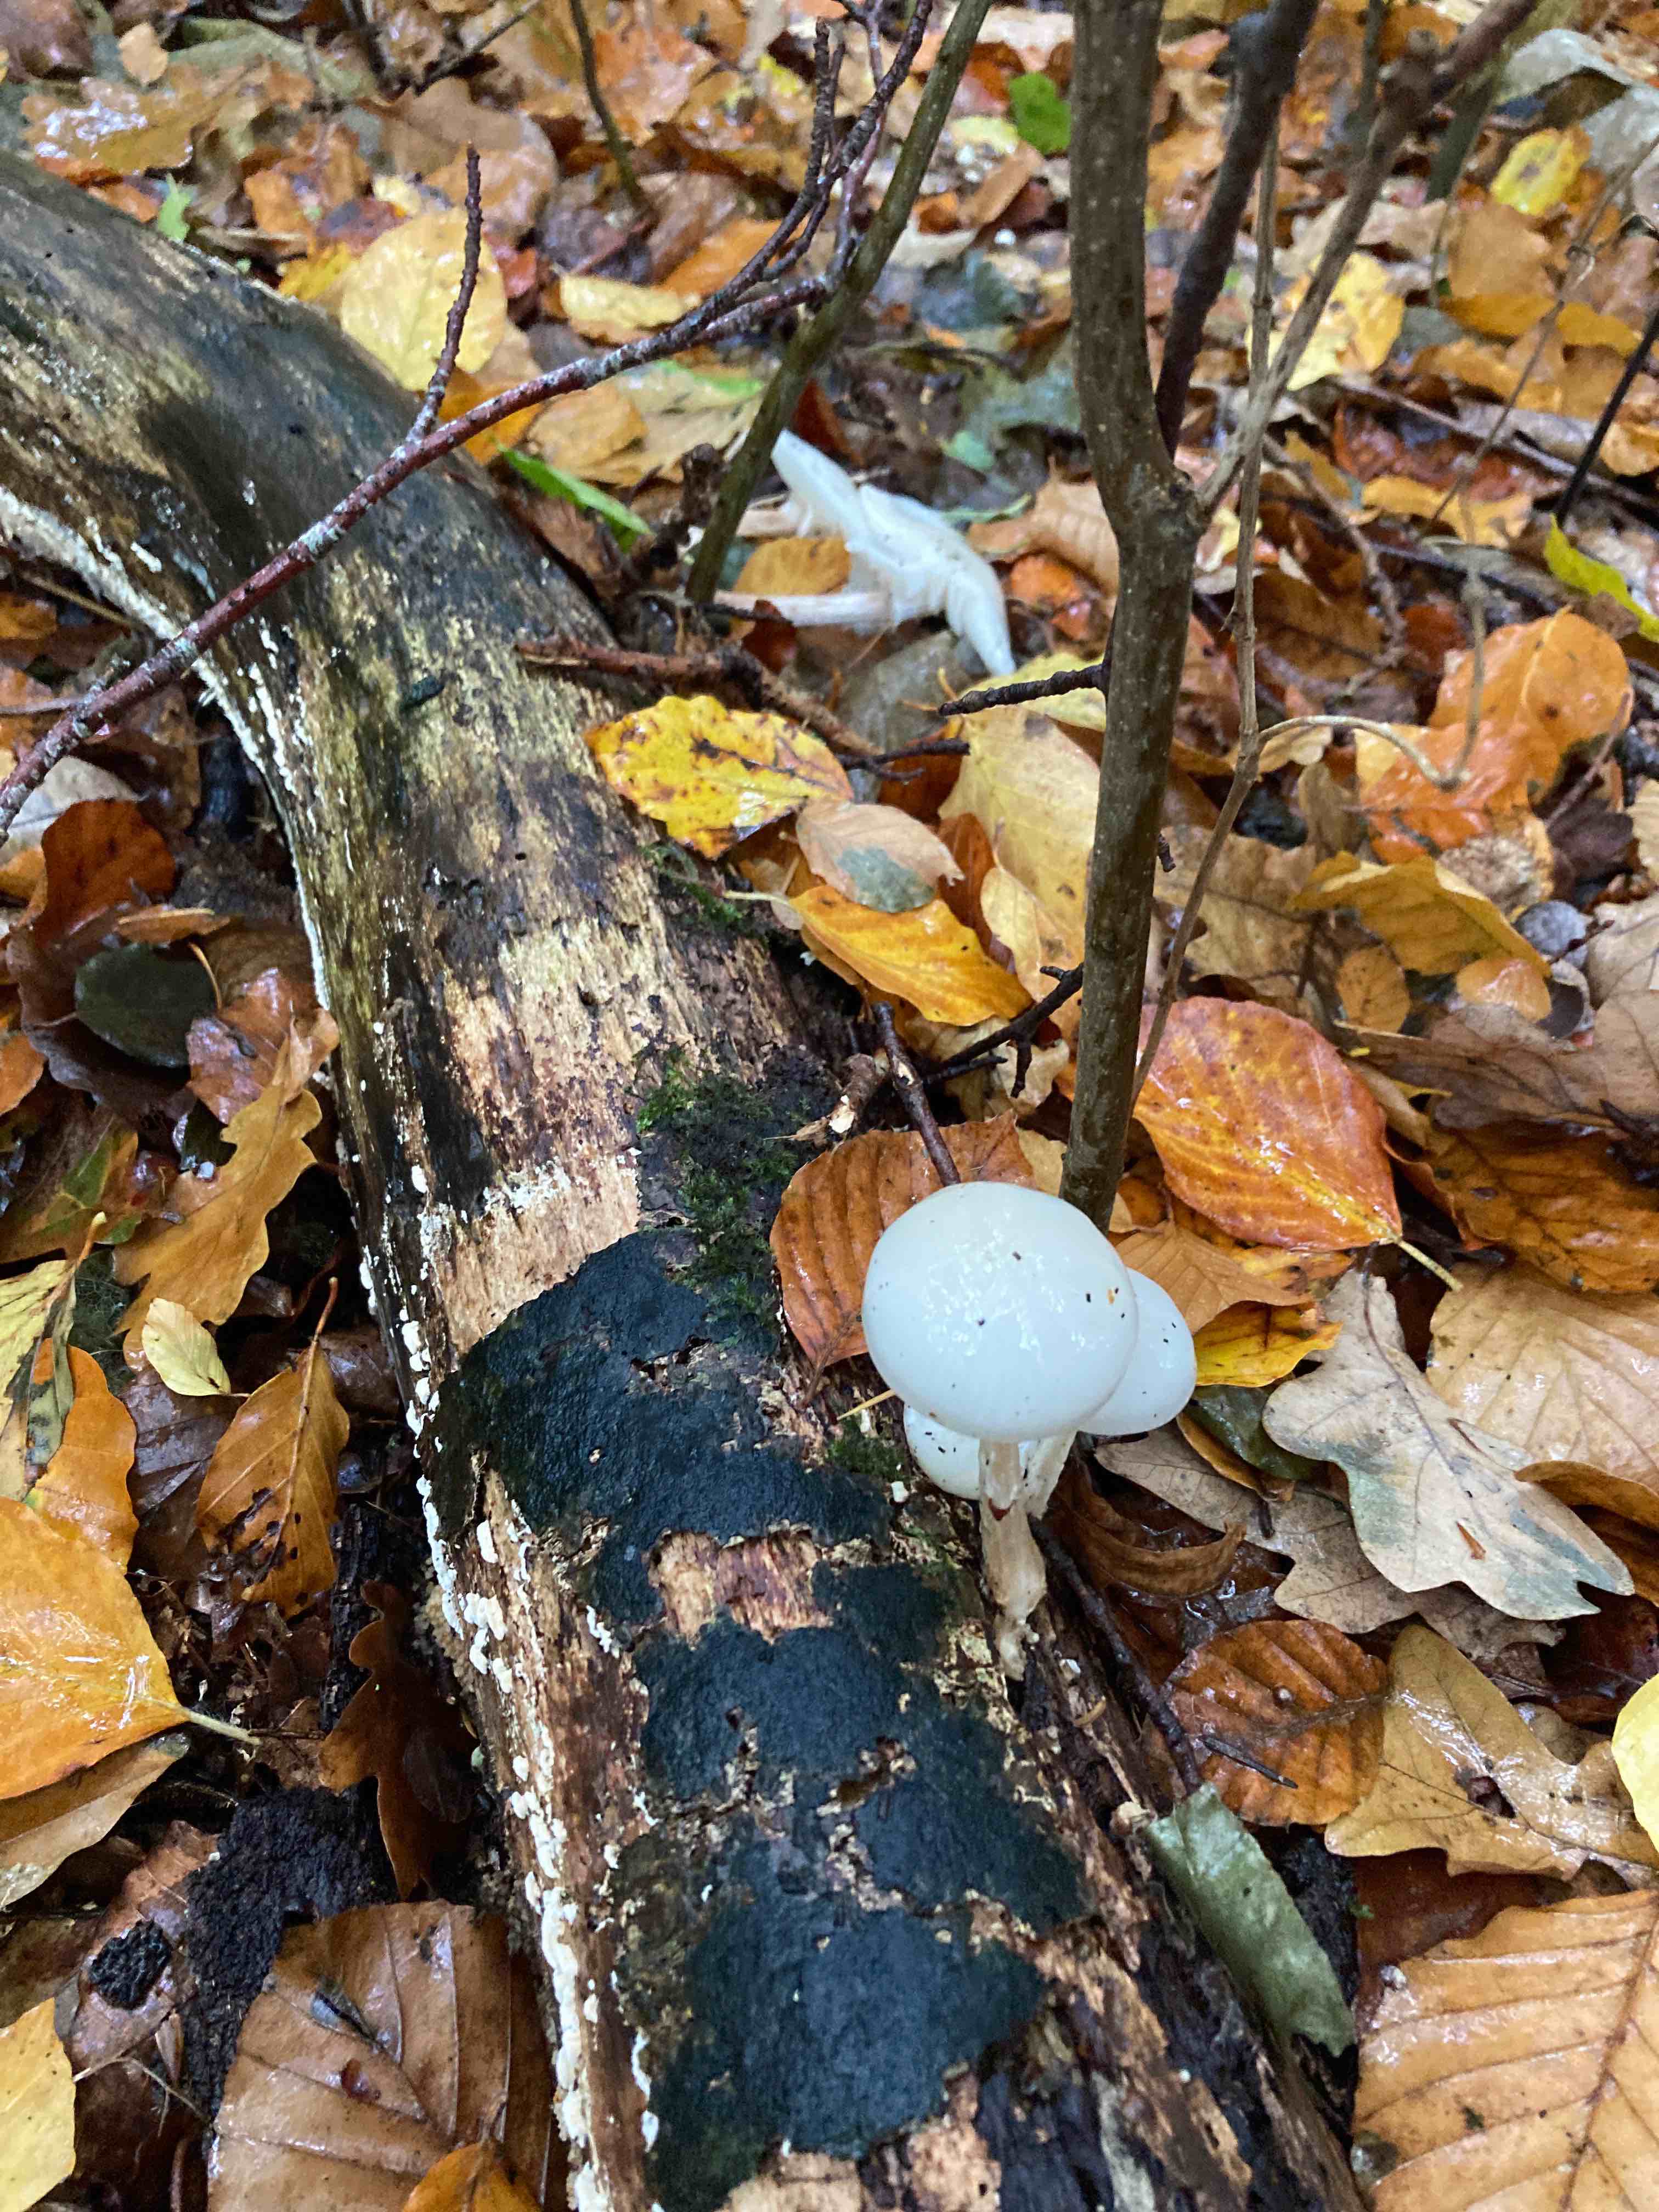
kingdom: Fungi
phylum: Basidiomycota
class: Agaricomycetes
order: Agaricales
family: Physalacriaceae
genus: Mucidula
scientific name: Mucidula mucida
